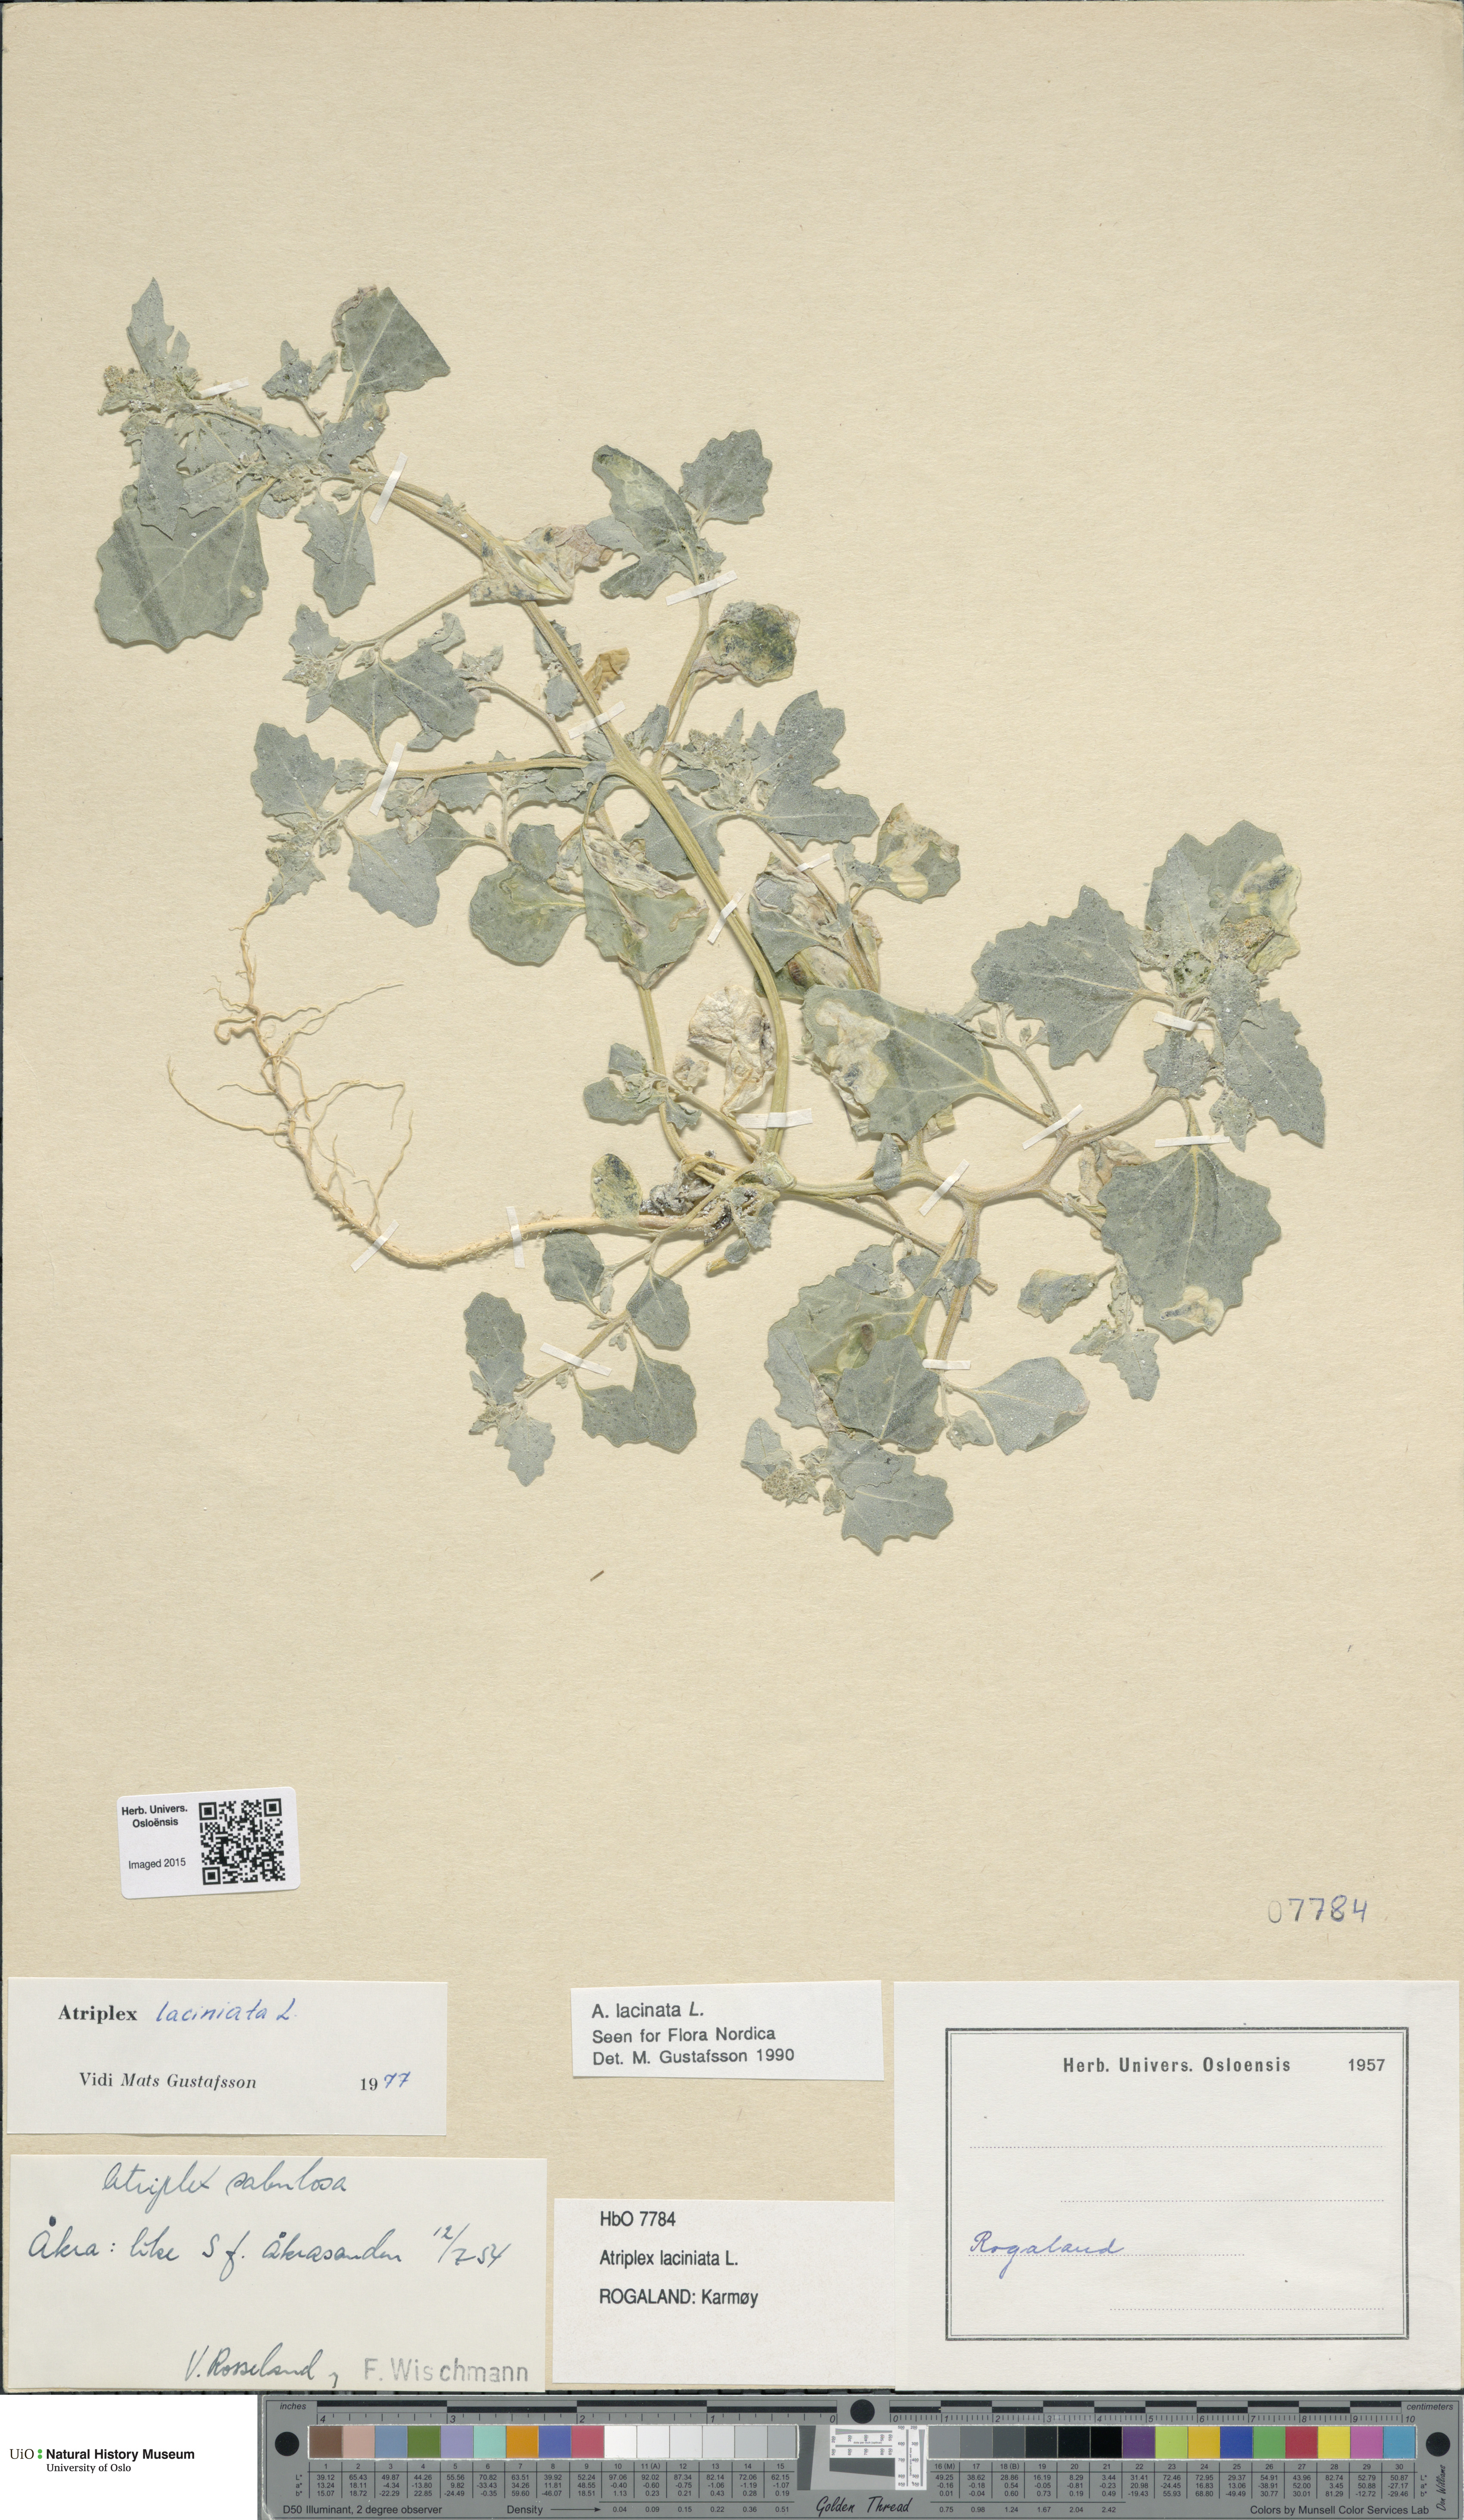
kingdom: Plantae
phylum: Tracheophyta
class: Magnoliopsida
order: Caryophyllales
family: Amaranthaceae
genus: Atriplex
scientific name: Atriplex laciniata
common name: Frosted orache
